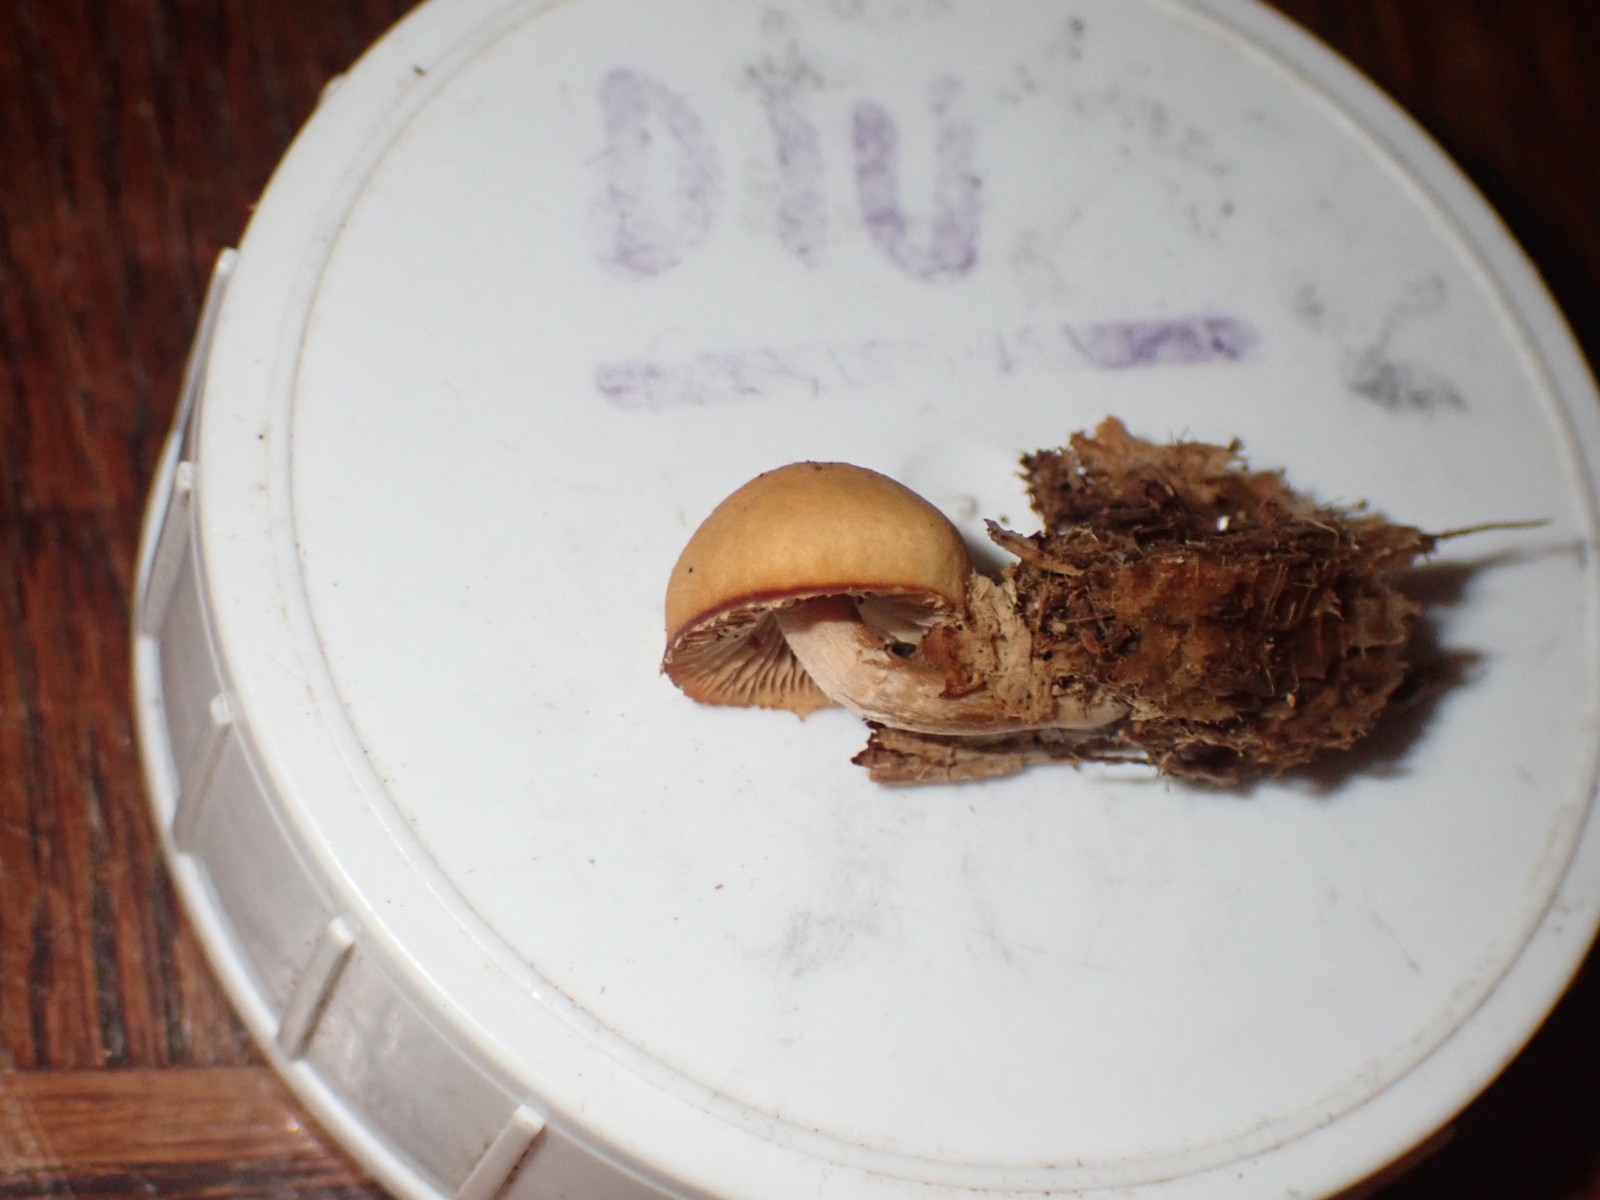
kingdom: Fungi
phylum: Basidiomycota
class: Agaricomycetes
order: Agaricales
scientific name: Agaricales
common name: champignonordenen
